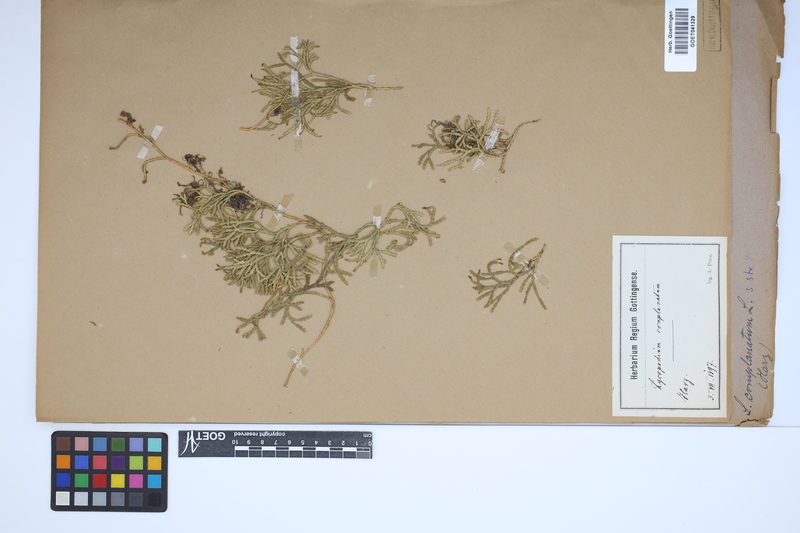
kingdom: Plantae
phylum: Tracheophyta
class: Lycopodiopsida
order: Lycopodiales
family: Lycopodiaceae
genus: Diphasiastrum
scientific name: Diphasiastrum complanatum
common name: Northern running-pine
